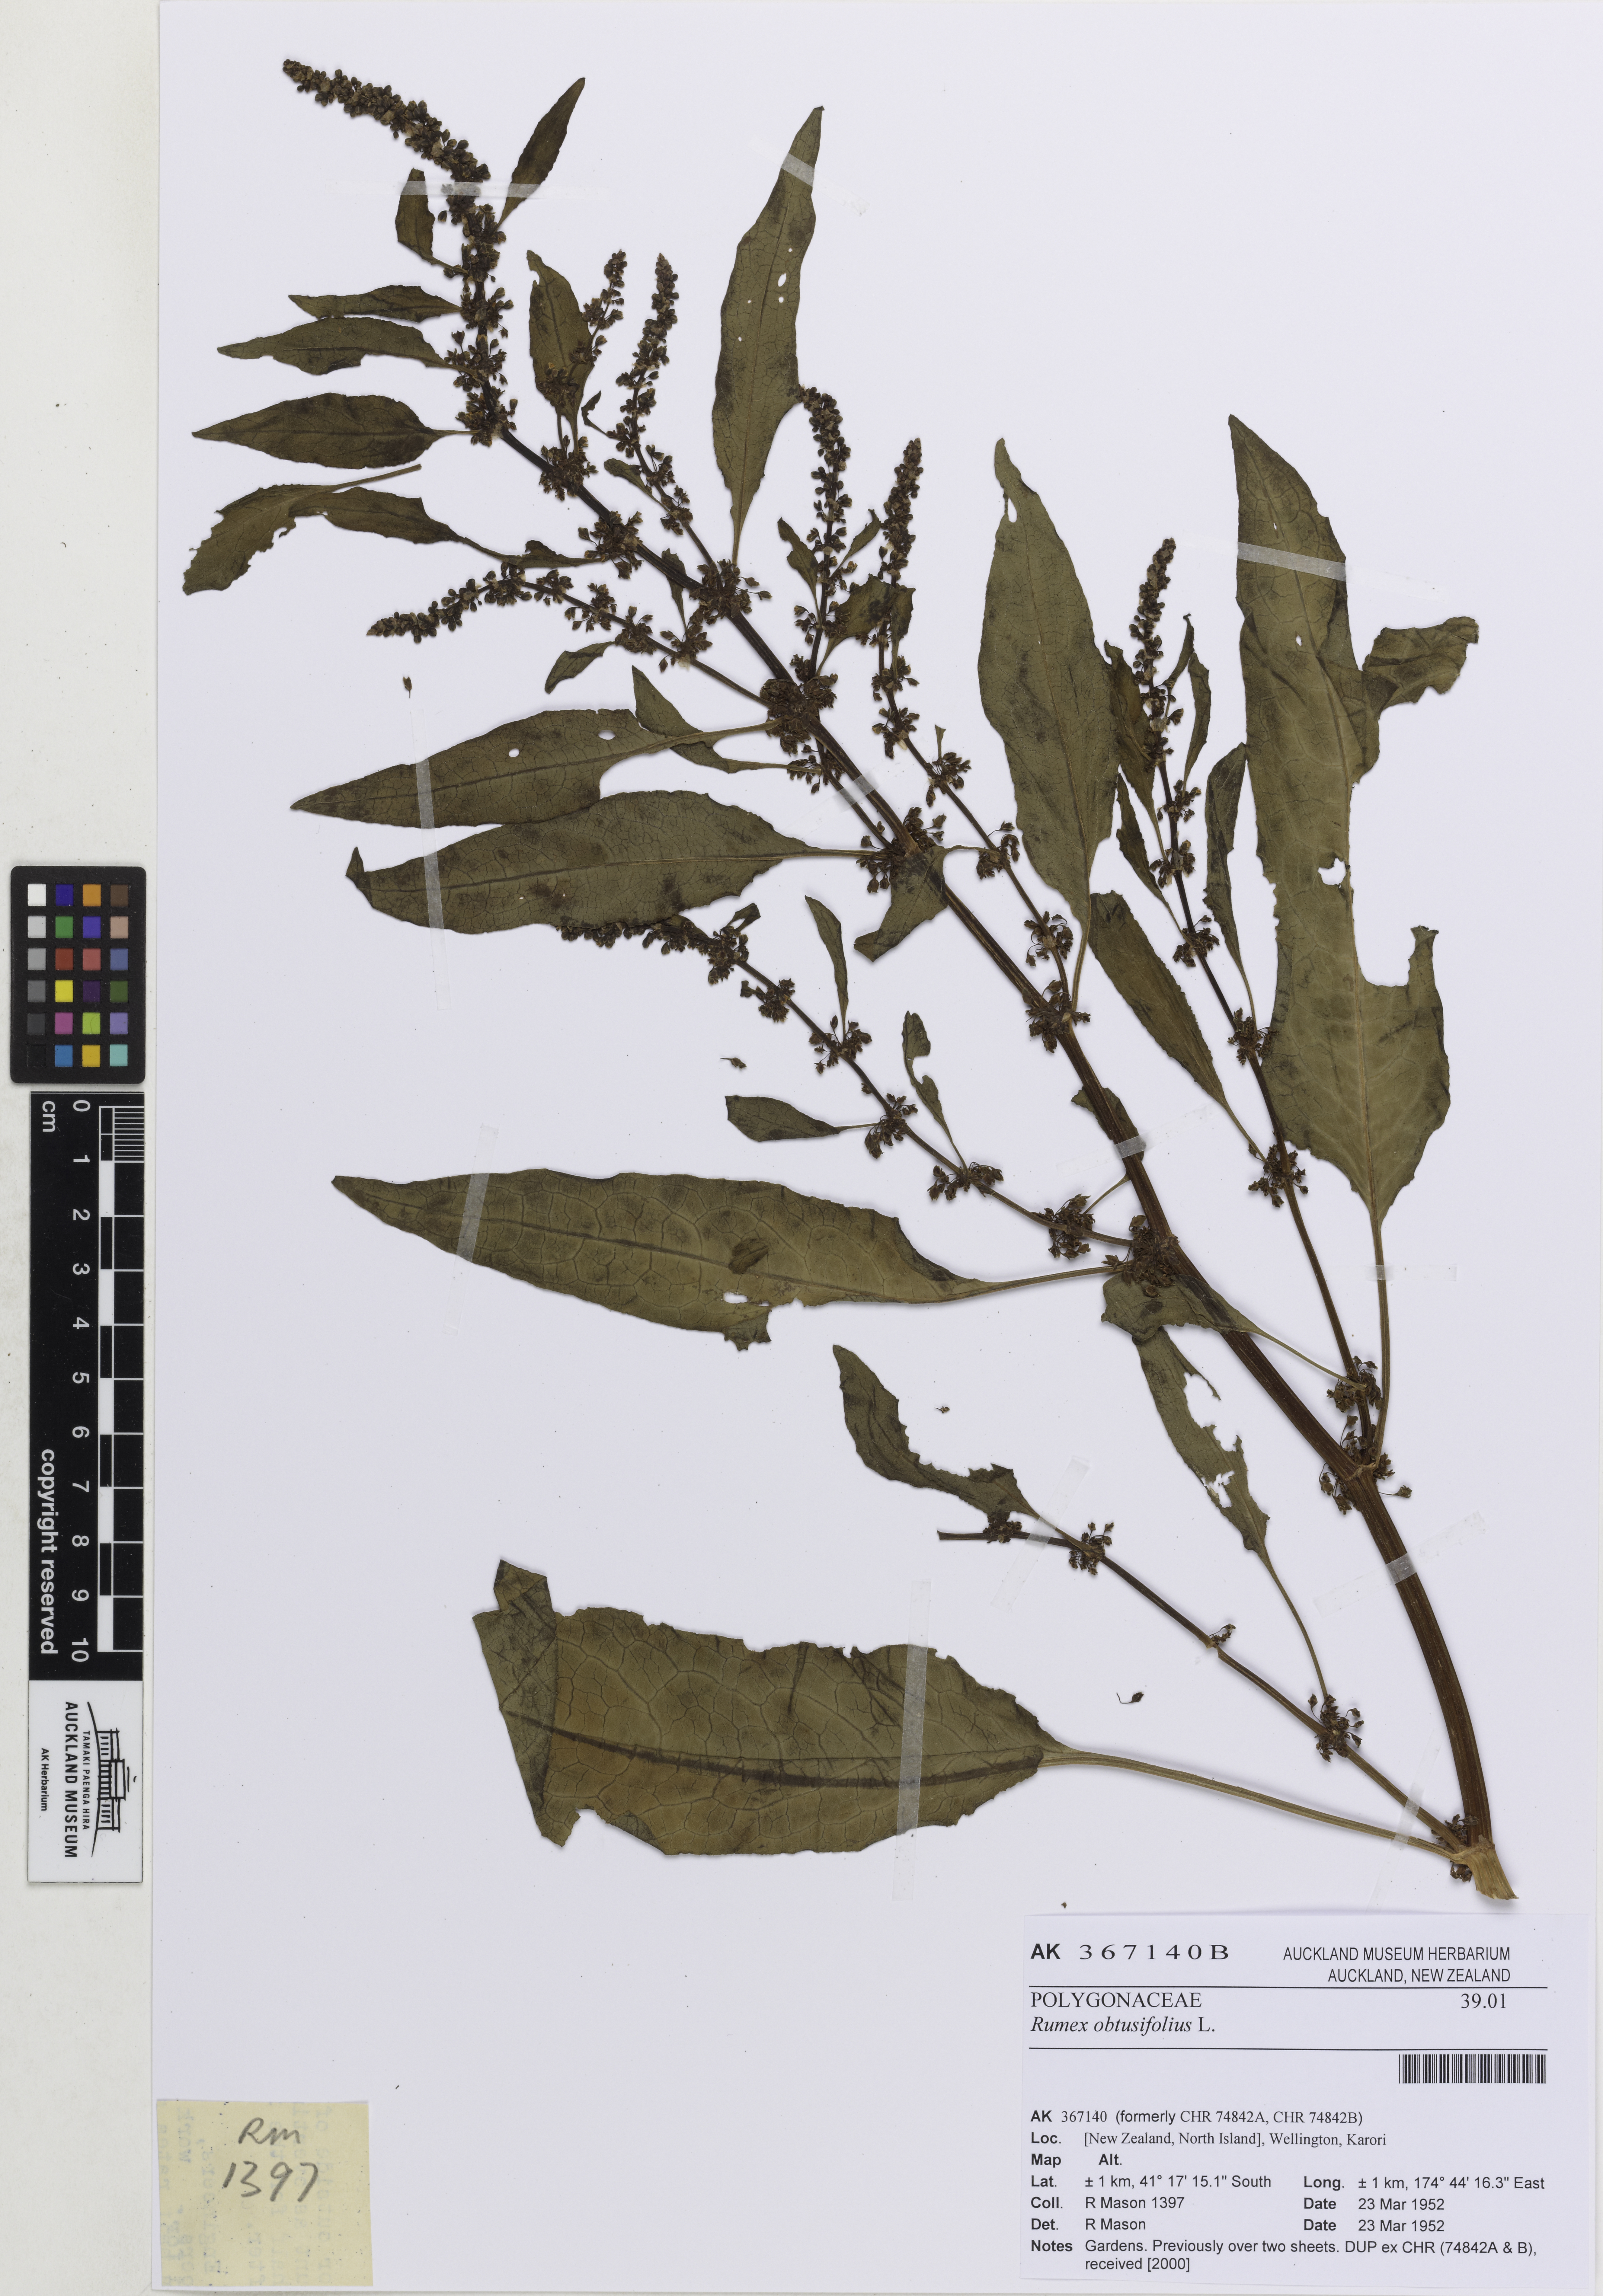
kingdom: Plantae
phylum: Tracheophyta
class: Magnoliopsida
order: Caryophyllales
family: Polygonaceae
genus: Rumex
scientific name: Rumex obtusifolius
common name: Bitter dock
